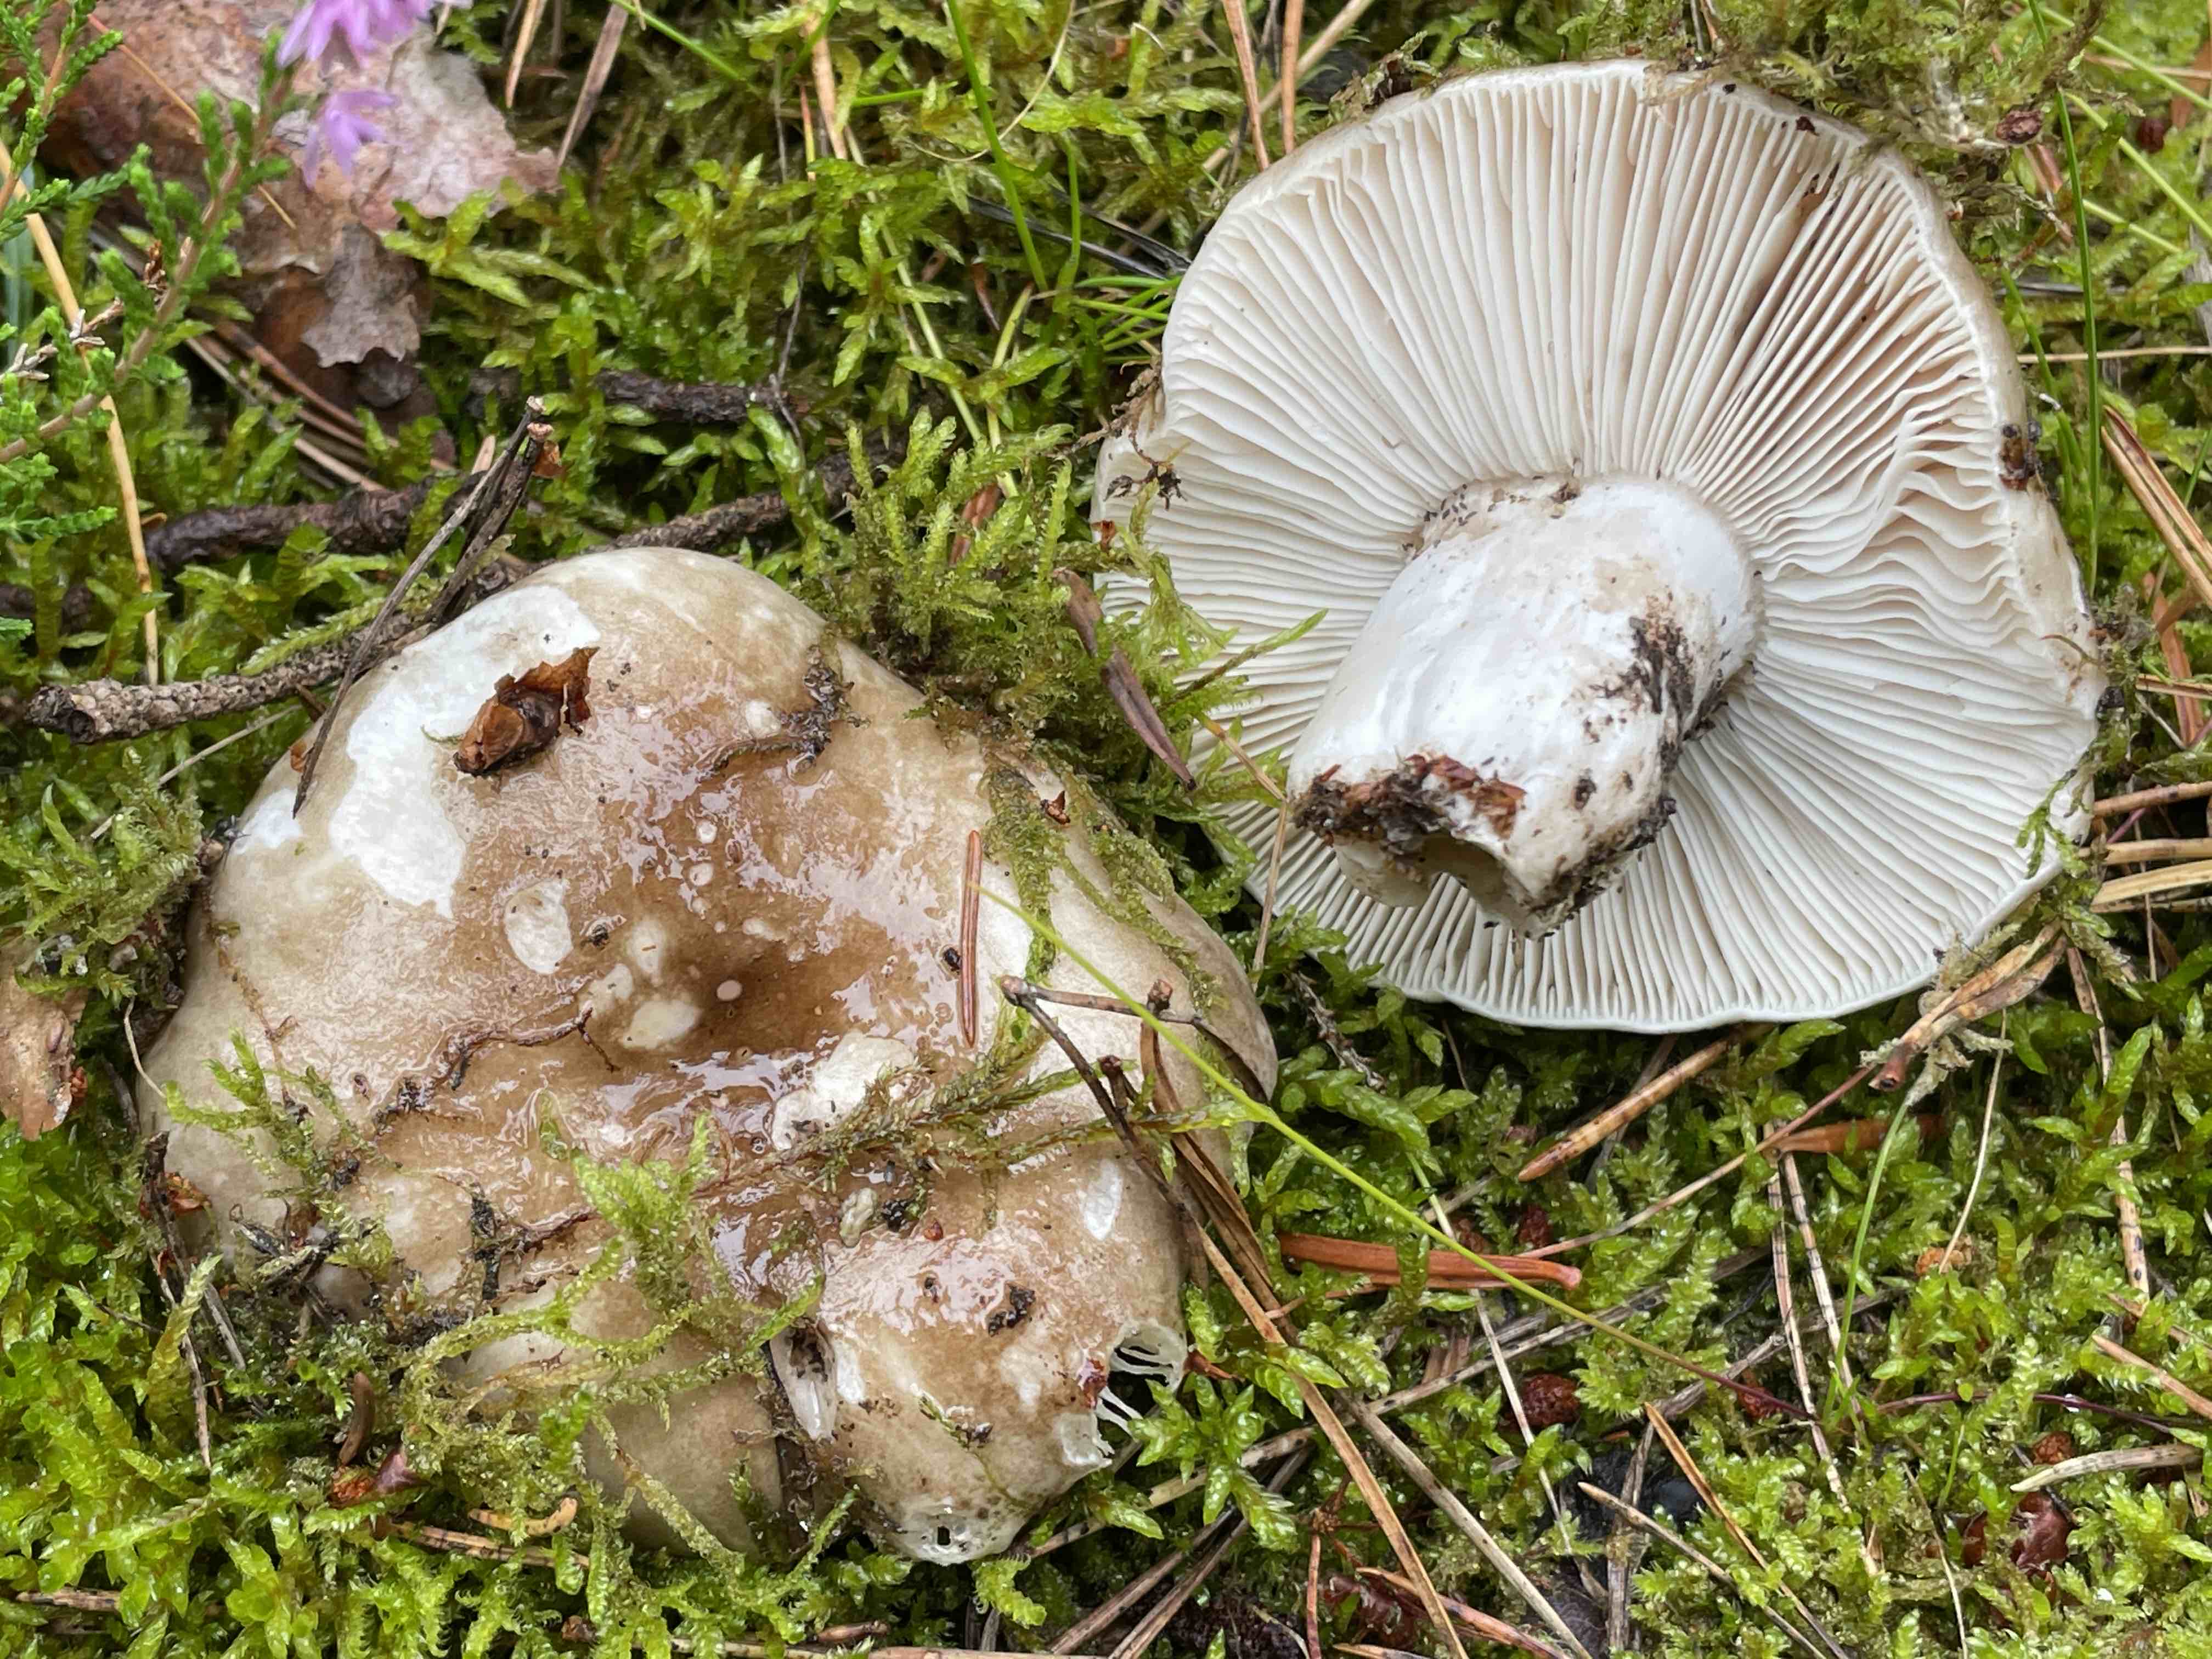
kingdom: Fungi
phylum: Basidiomycota
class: Agaricomycetes
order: Russulales
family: Russulaceae
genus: Russula
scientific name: Russula adusta
